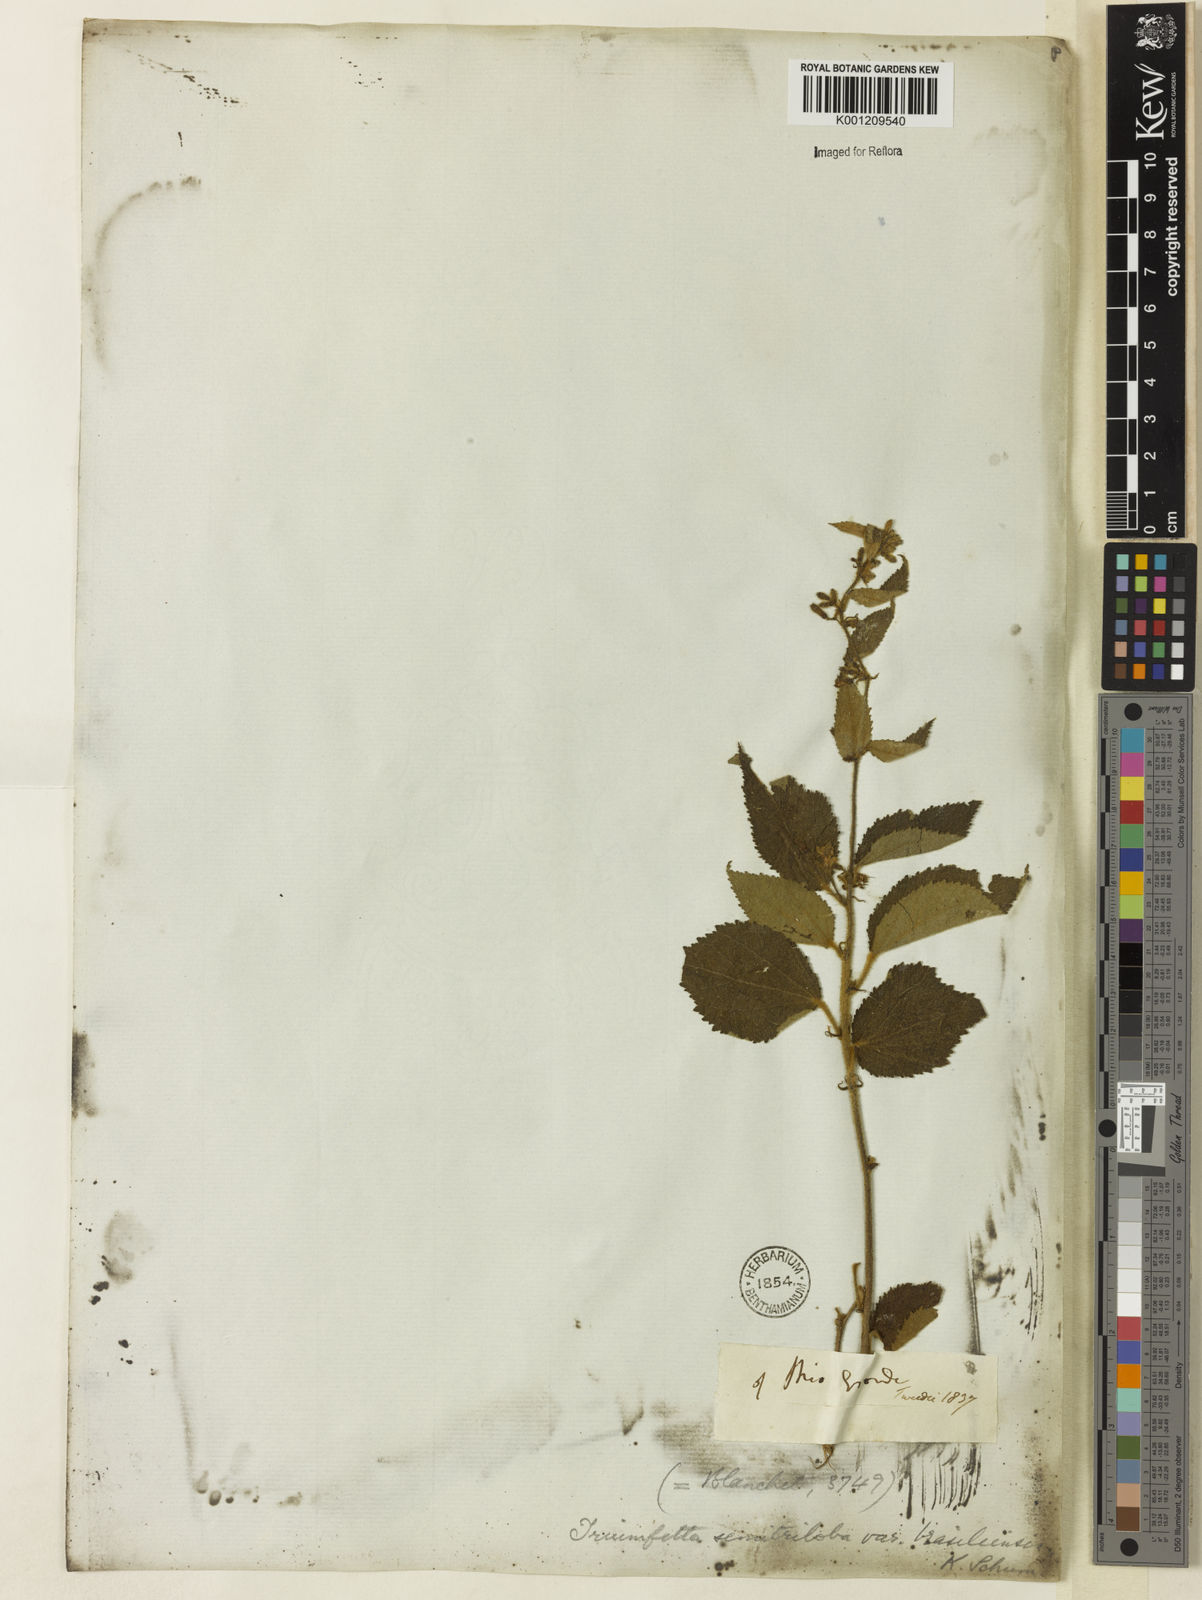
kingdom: Plantae
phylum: Tracheophyta
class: Magnoliopsida
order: Malvales
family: Malvaceae
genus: Triumfetta
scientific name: Triumfetta semitriloba
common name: Sacramento burbark
